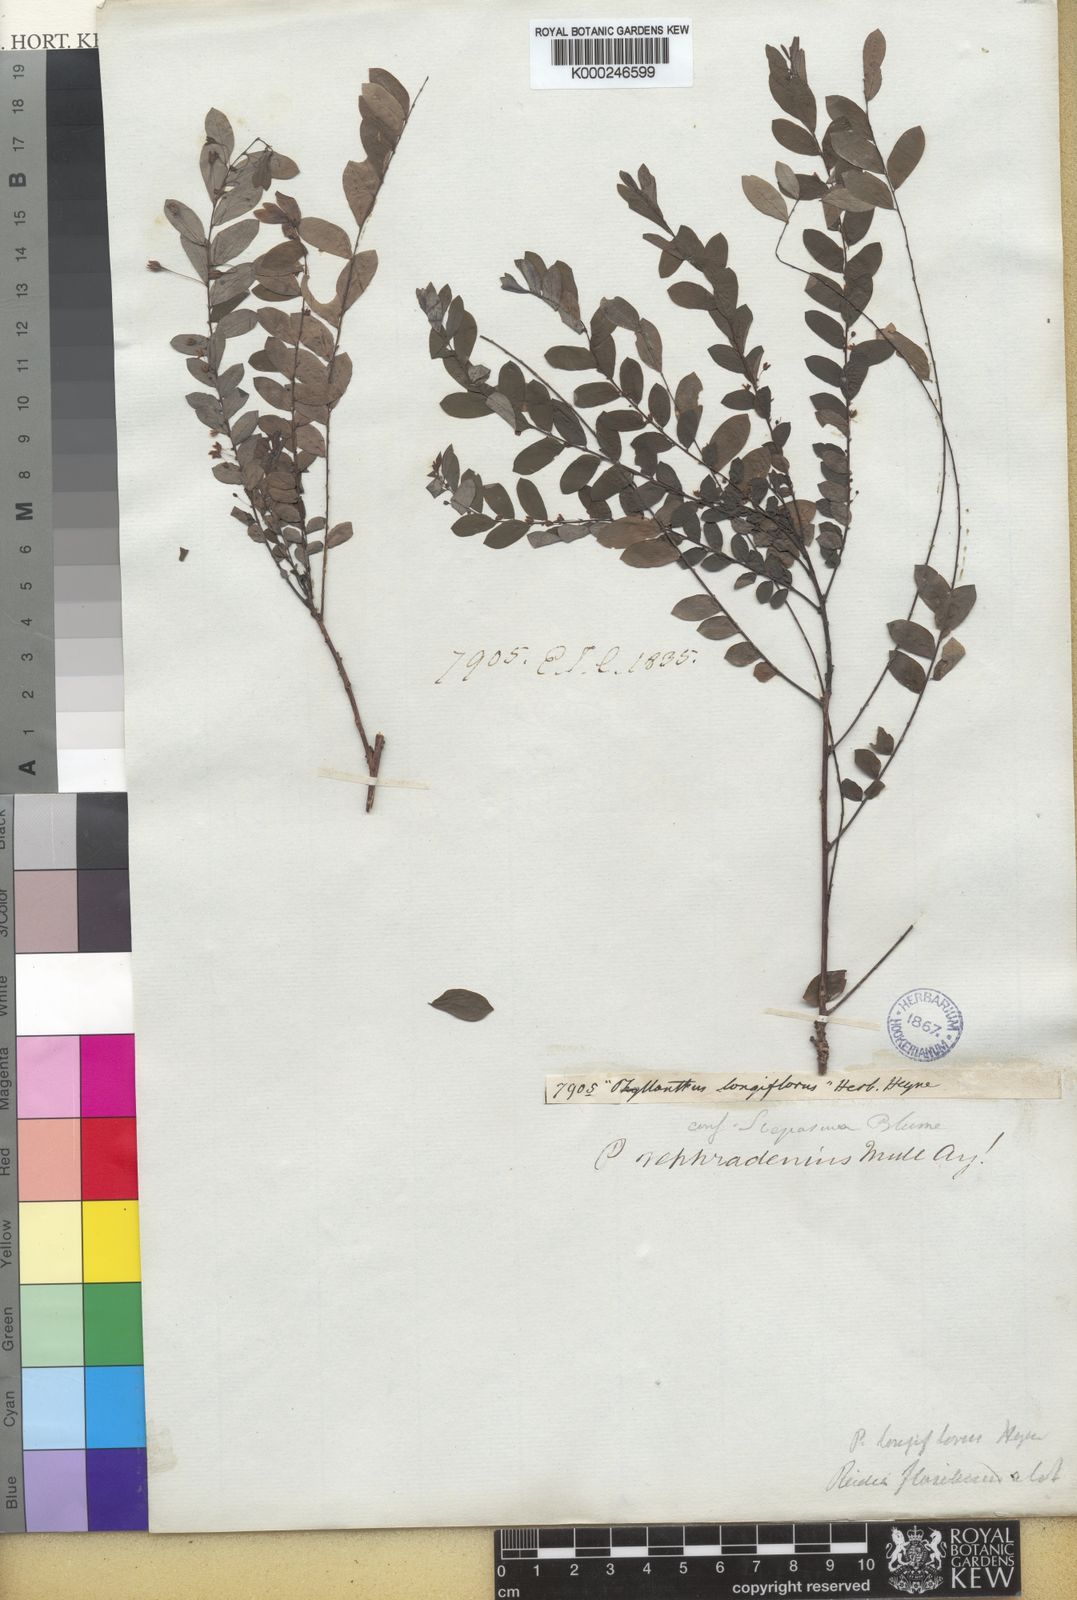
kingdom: Plantae
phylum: Tracheophyta
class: Magnoliopsida
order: Malpighiales
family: Phyllanthaceae
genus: Phyllanthus
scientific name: Phyllanthus
